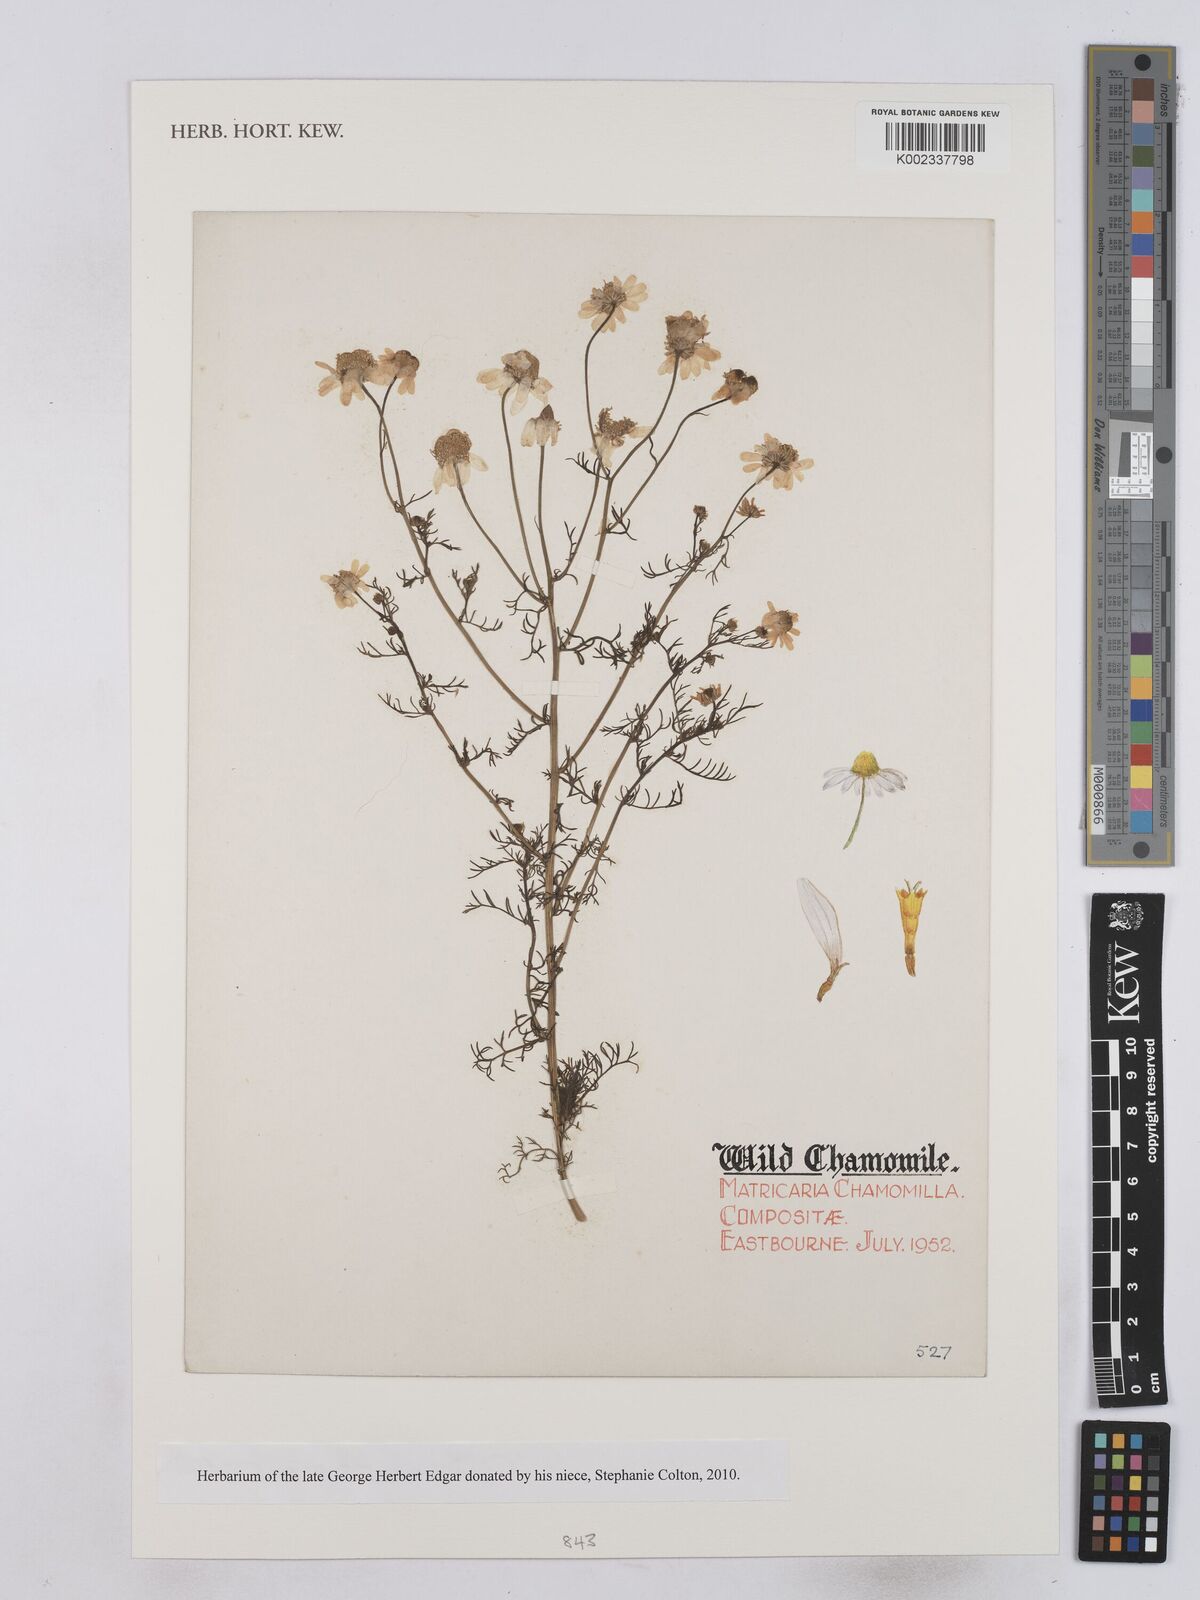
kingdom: Plantae
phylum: Tracheophyta
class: Magnoliopsida
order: Asterales
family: Asteraceae
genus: Matricaria
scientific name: Matricaria chamomilla
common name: Scented mayweed
